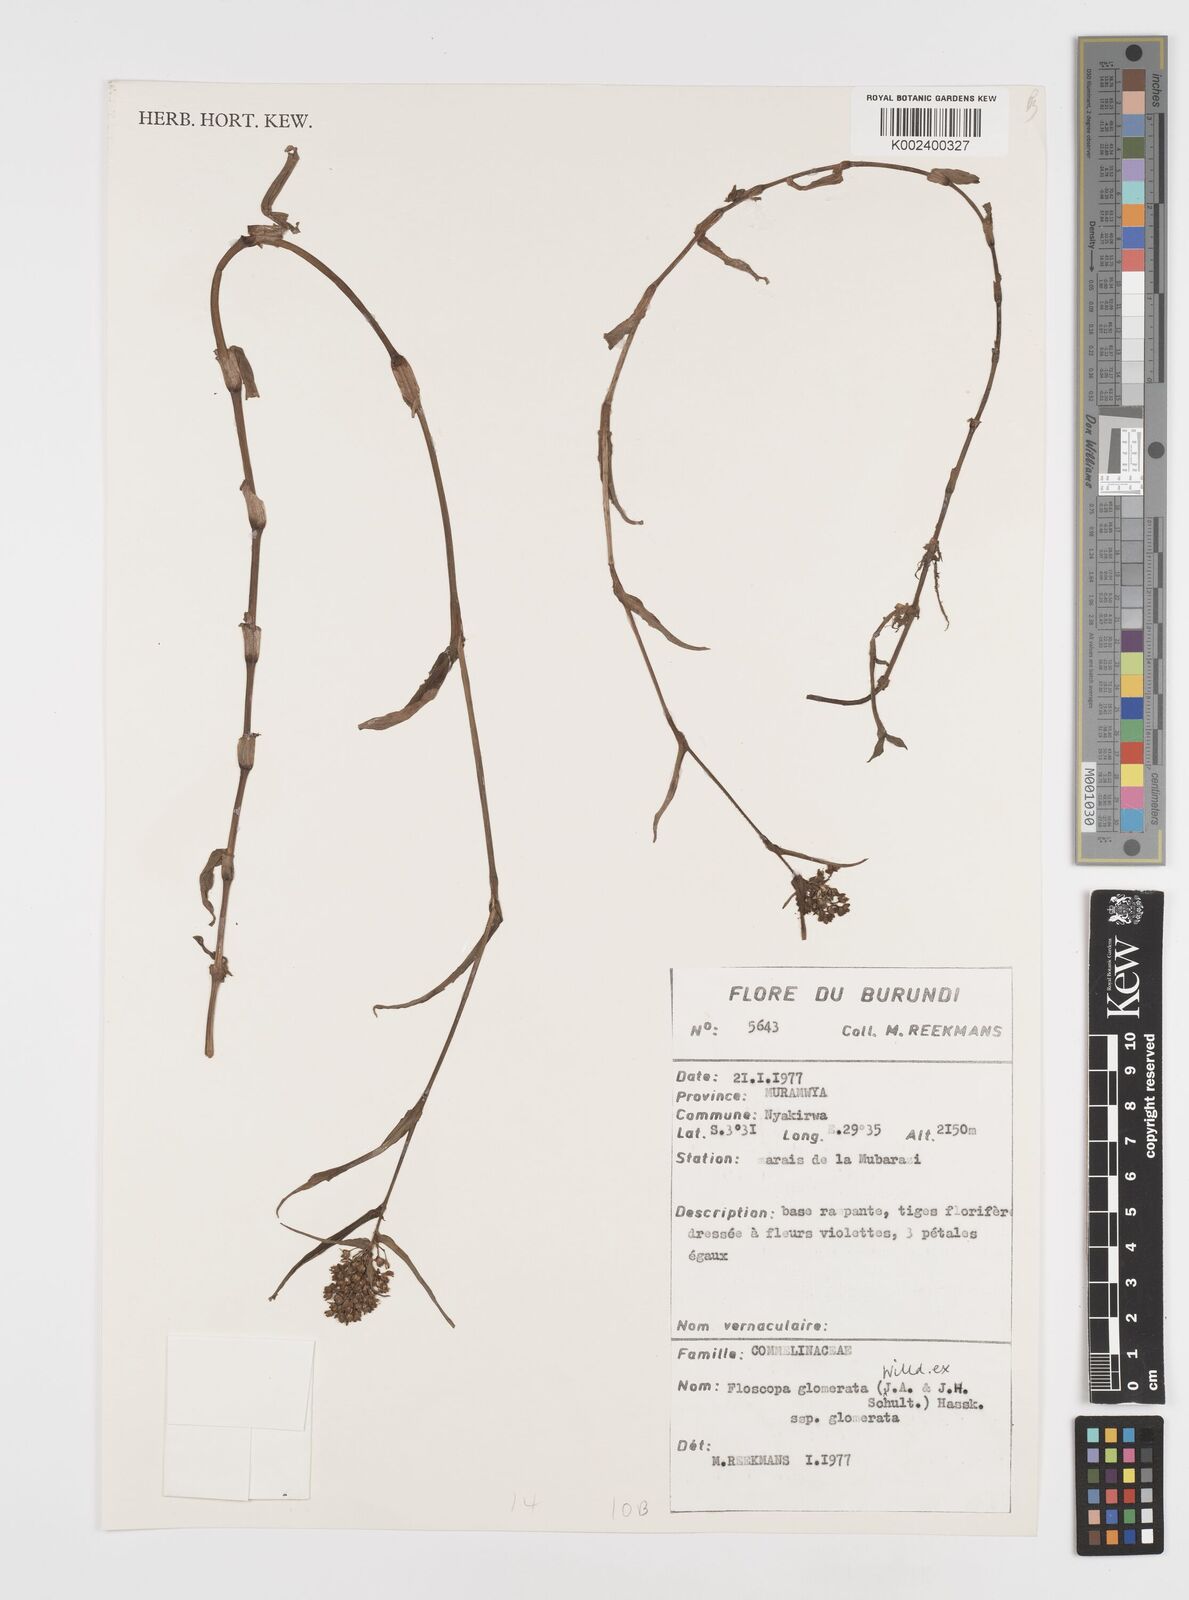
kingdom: Plantae
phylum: Tracheophyta
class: Liliopsida
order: Commelinales
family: Commelinaceae
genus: Floscopa
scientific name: Floscopa glomerata
